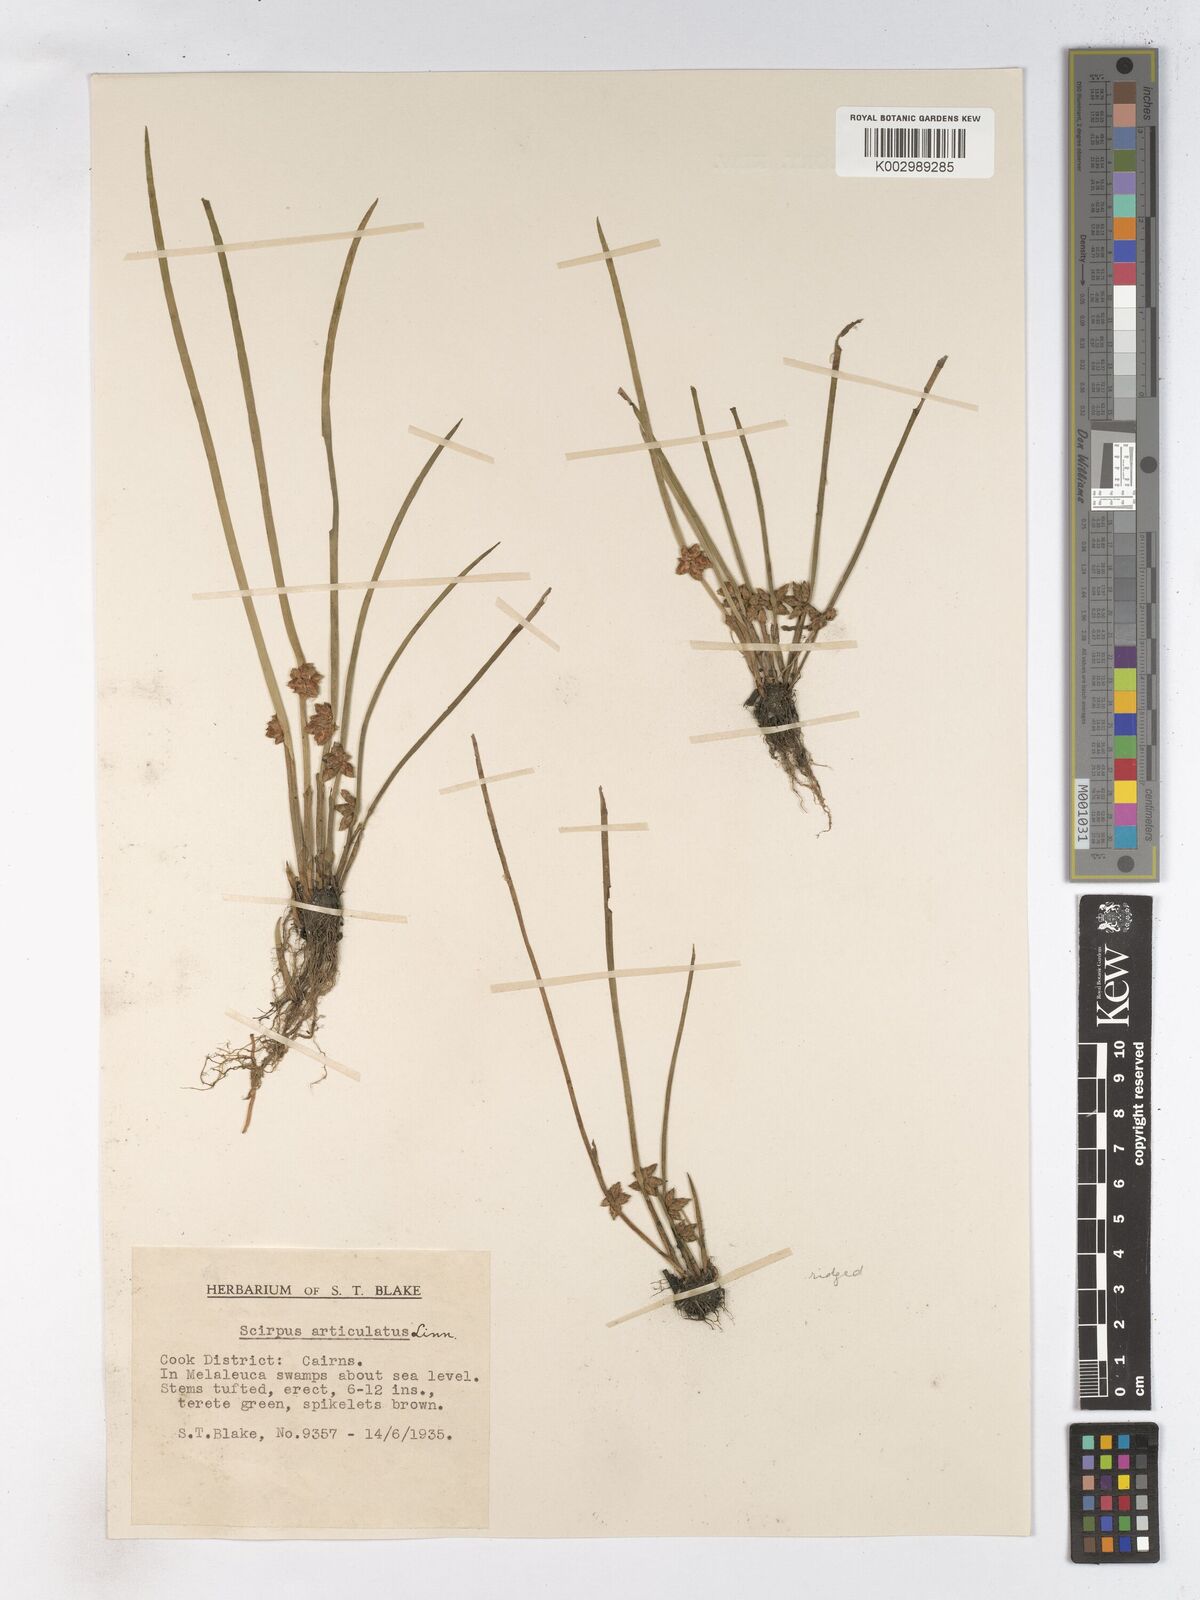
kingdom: Plantae
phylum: Tracheophyta
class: Liliopsida
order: Poales
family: Cyperaceae
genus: Schoenoplectiella
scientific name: Schoenoplectiella articulata
